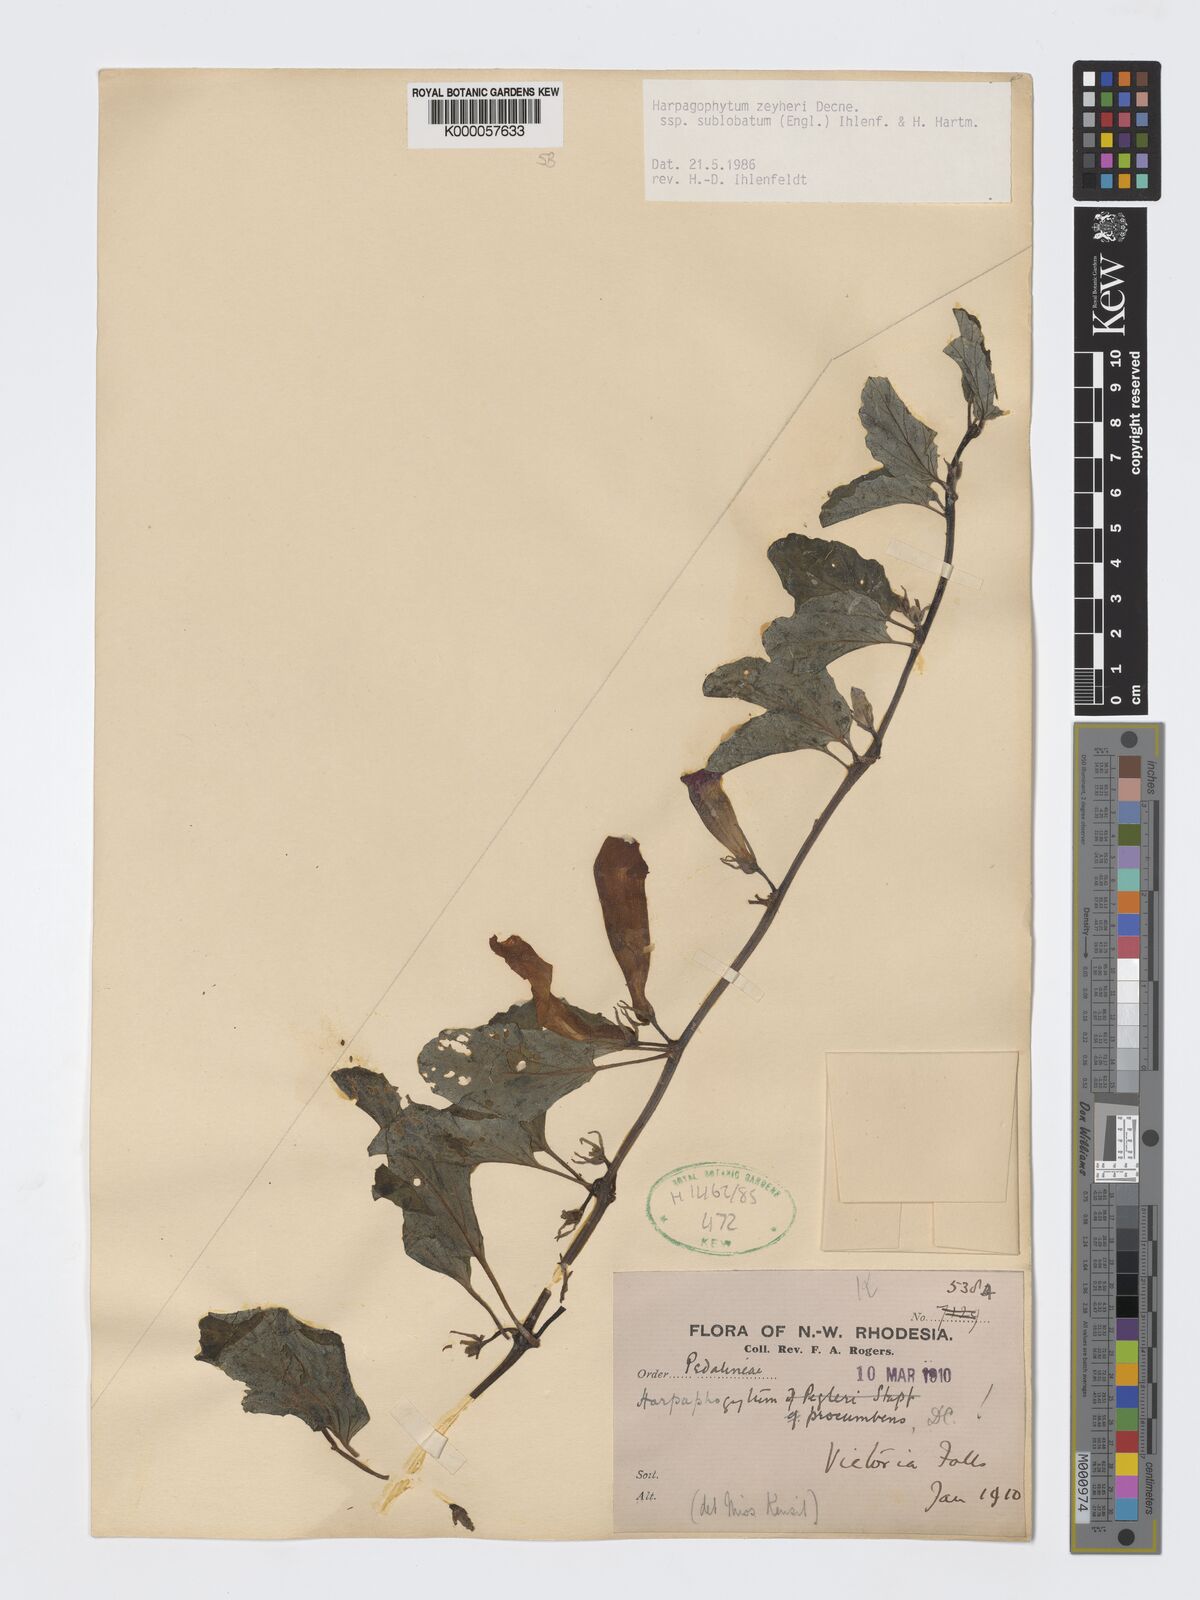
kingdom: Plantae
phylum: Tracheophyta
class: Magnoliopsida
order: Lamiales
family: Pedaliaceae
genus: Harpagophytum
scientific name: Harpagophytum zeyheri
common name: Grappleplant
